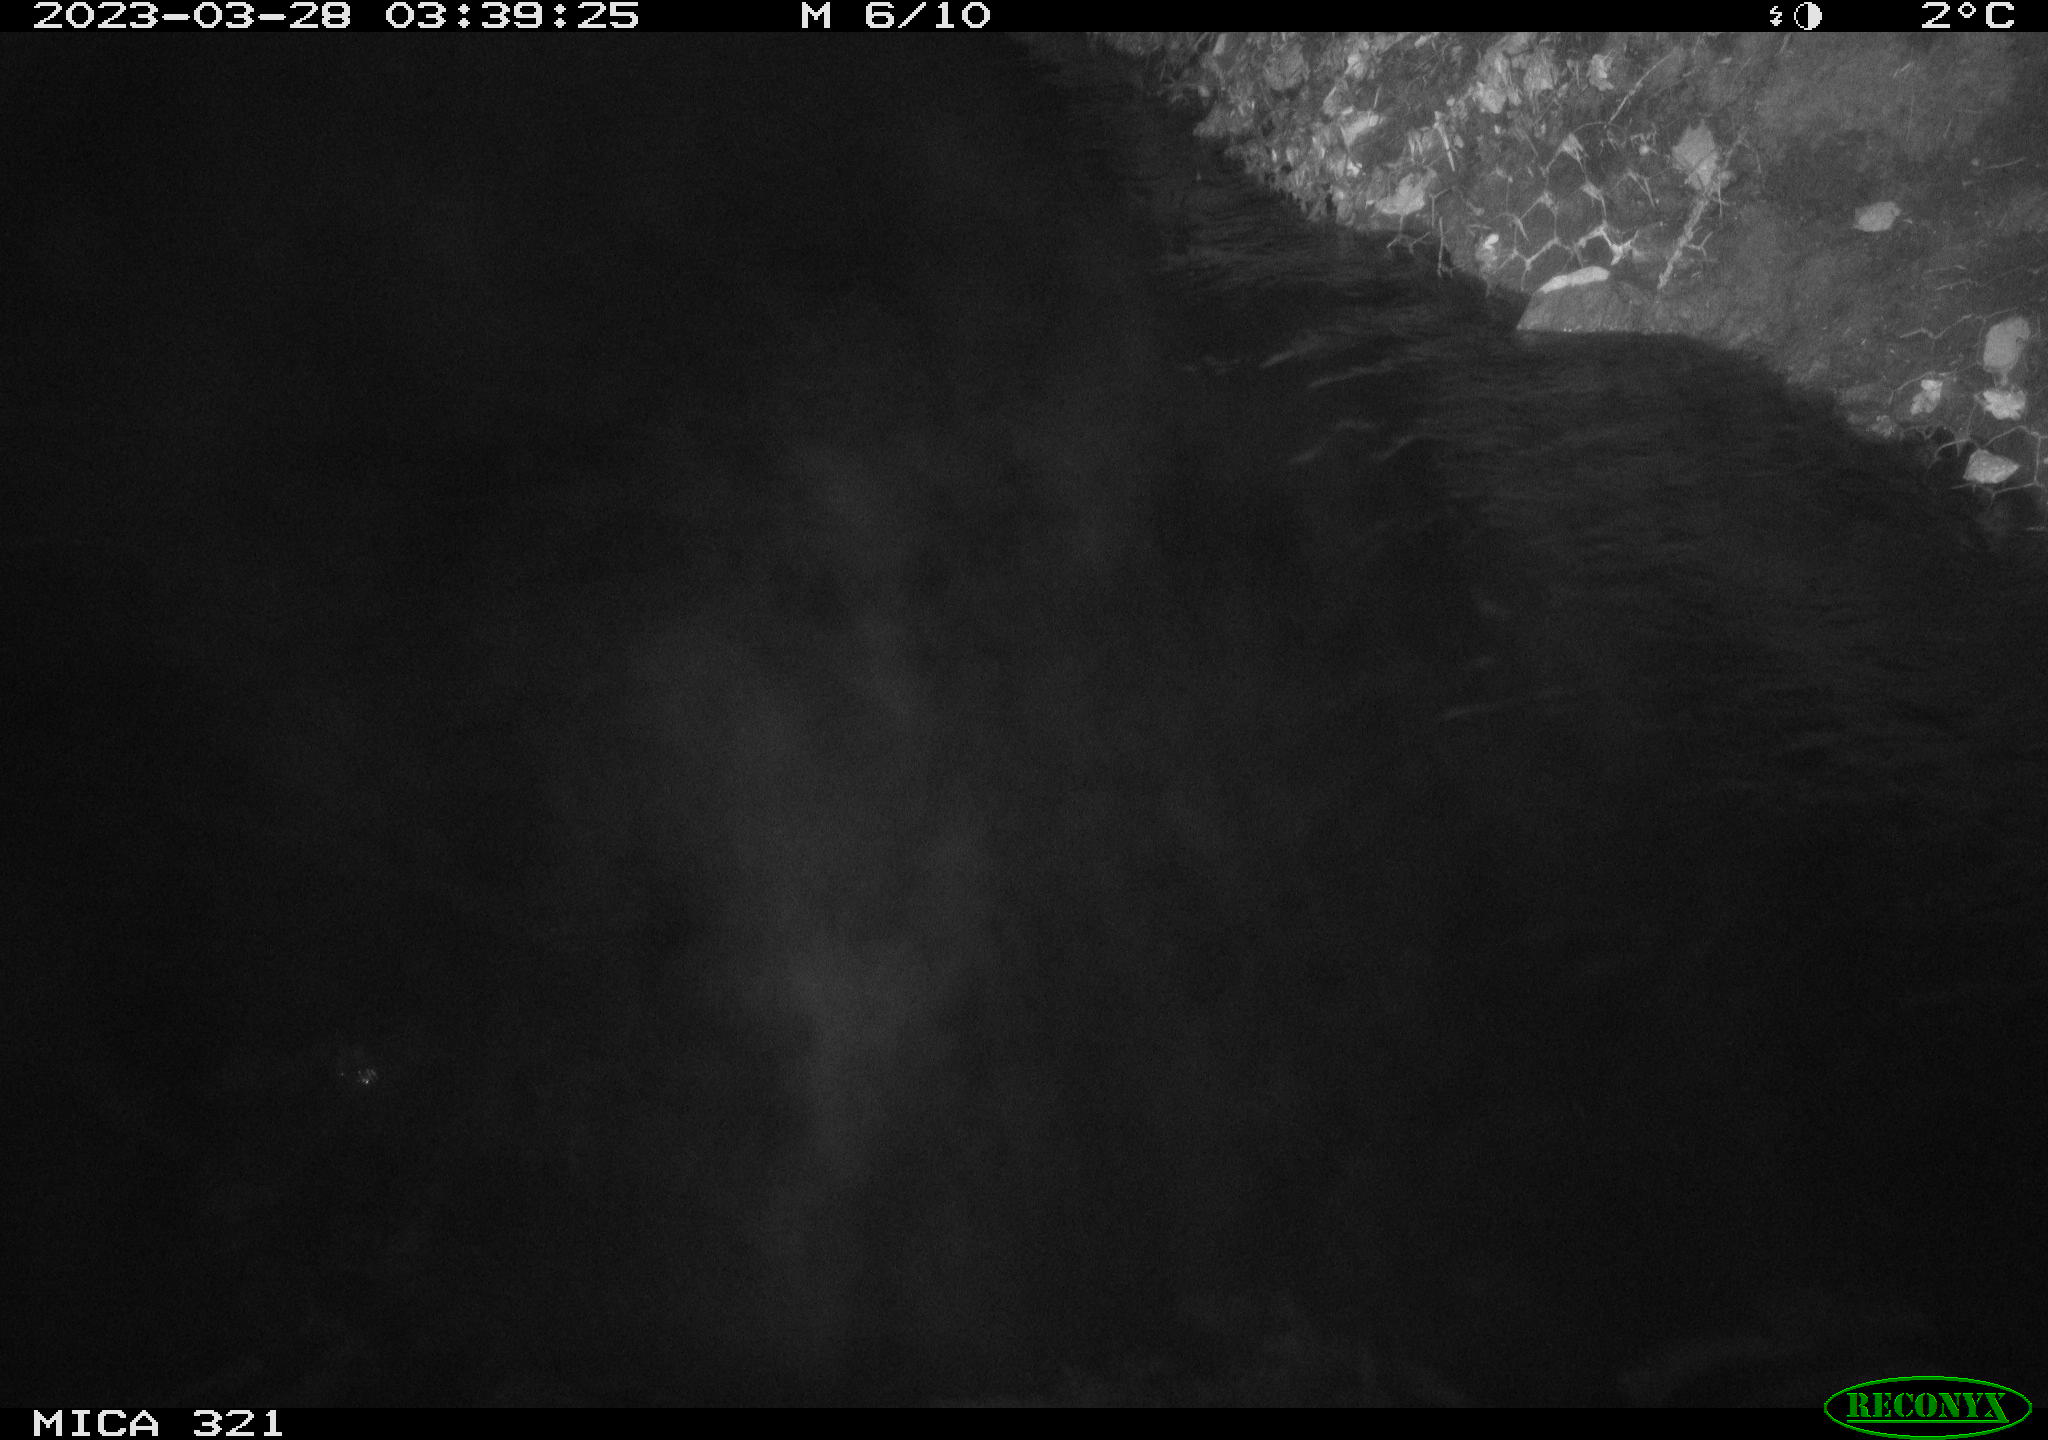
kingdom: Animalia
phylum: Chordata
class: Aves
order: Anseriformes
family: Anatidae
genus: Anas
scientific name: Anas
